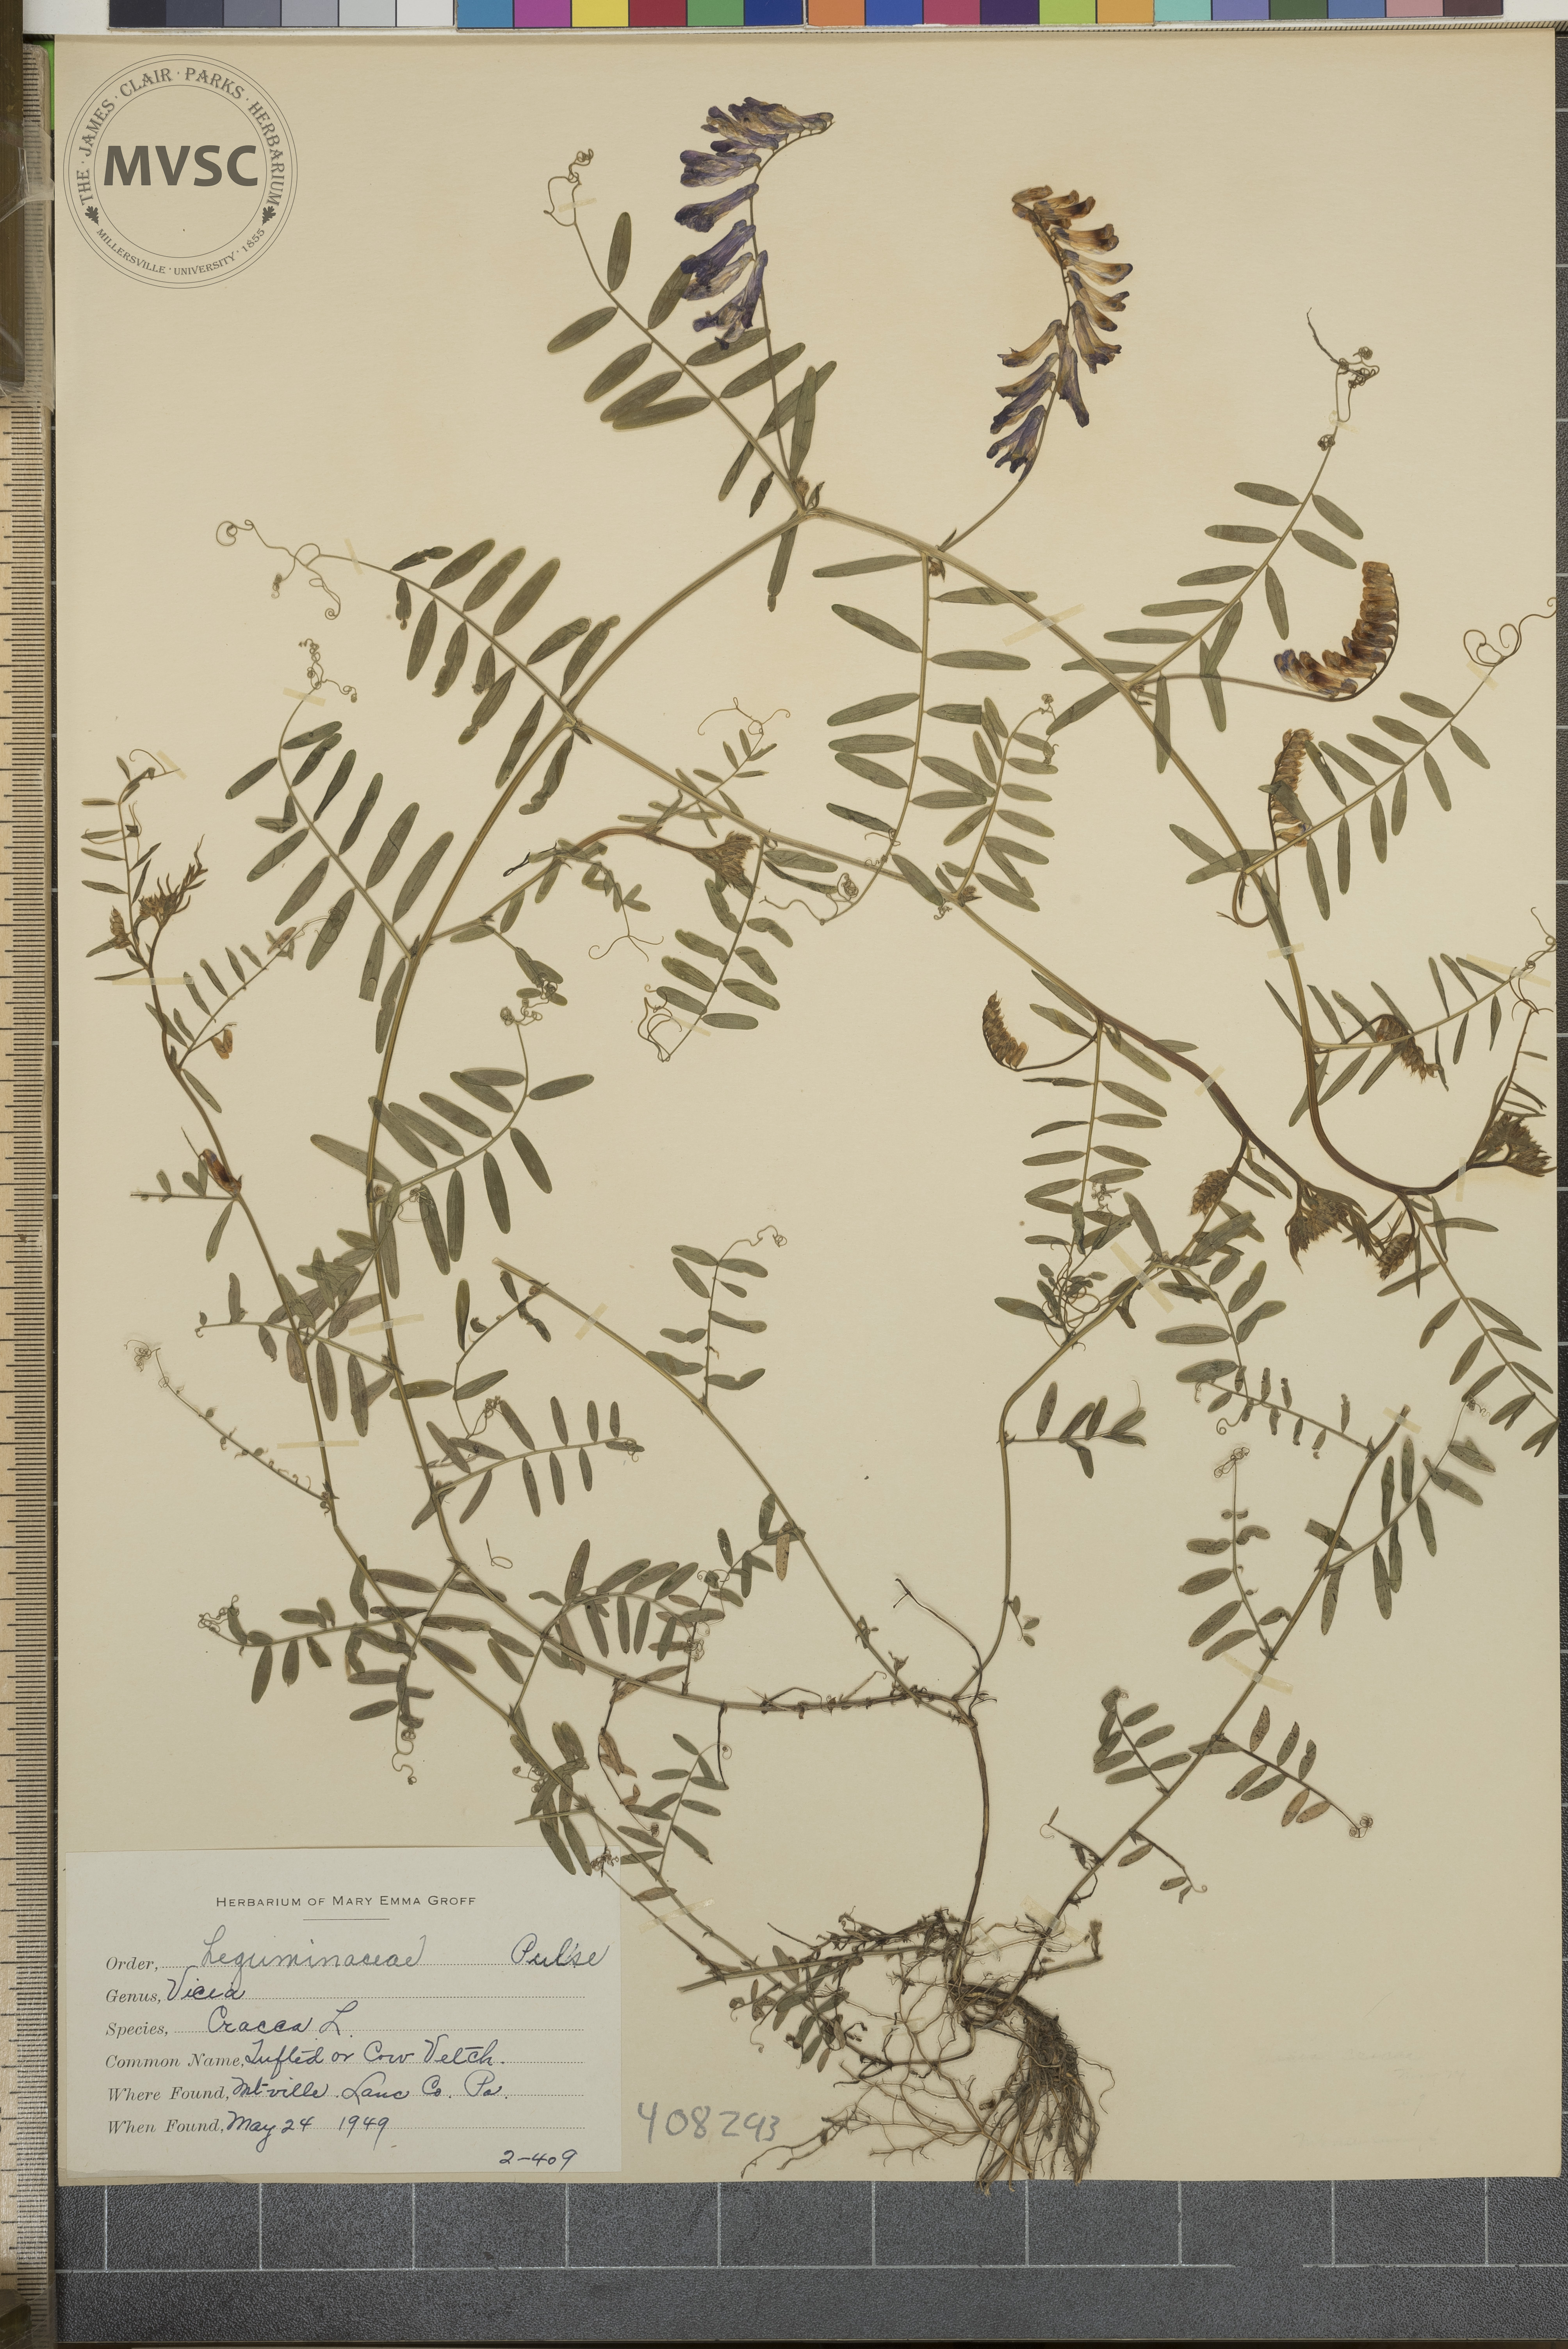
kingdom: Plantae
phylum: Tracheophyta
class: Magnoliopsida
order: Fabales
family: Fabaceae
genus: Vicia
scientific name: Vicia cracca
